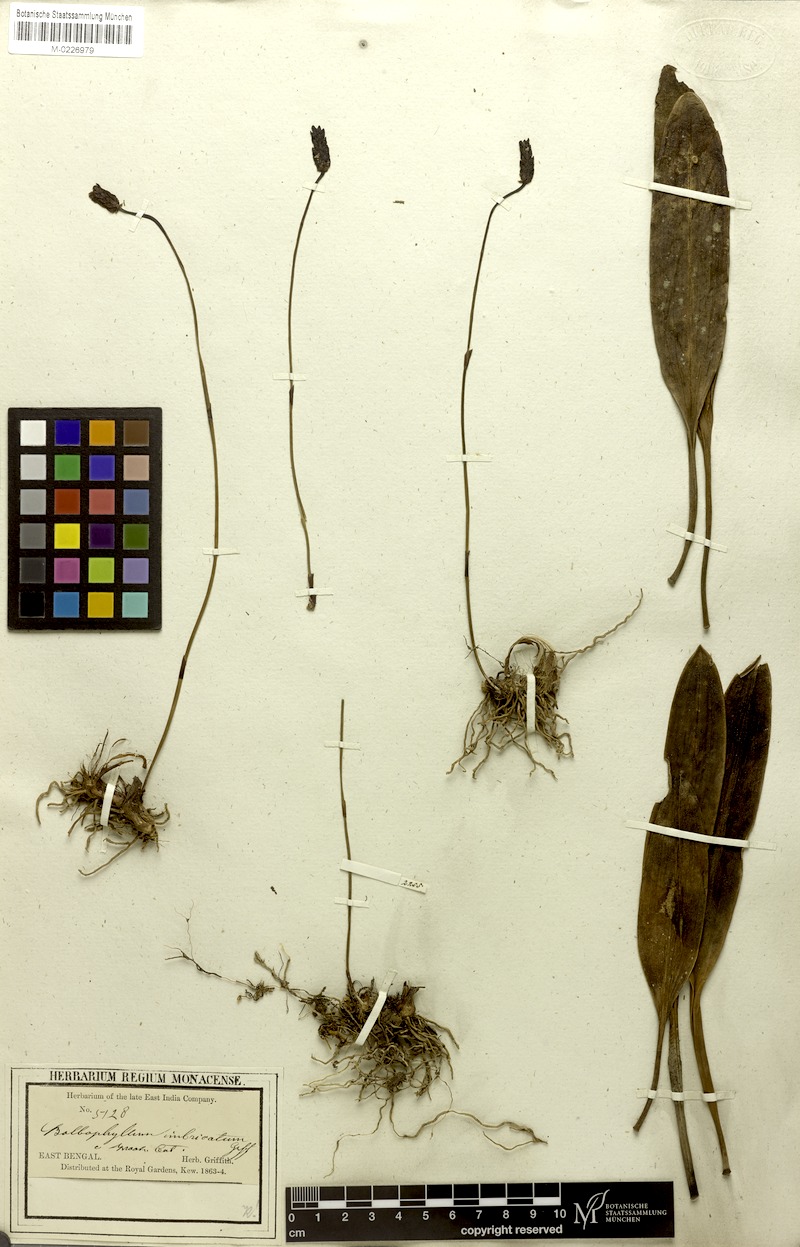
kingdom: Plantae
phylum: Tracheophyta
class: Liliopsida
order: Asparagales
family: Orchidaceae
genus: Bulbophyllum
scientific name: Bulbophyllum cylindraceum
